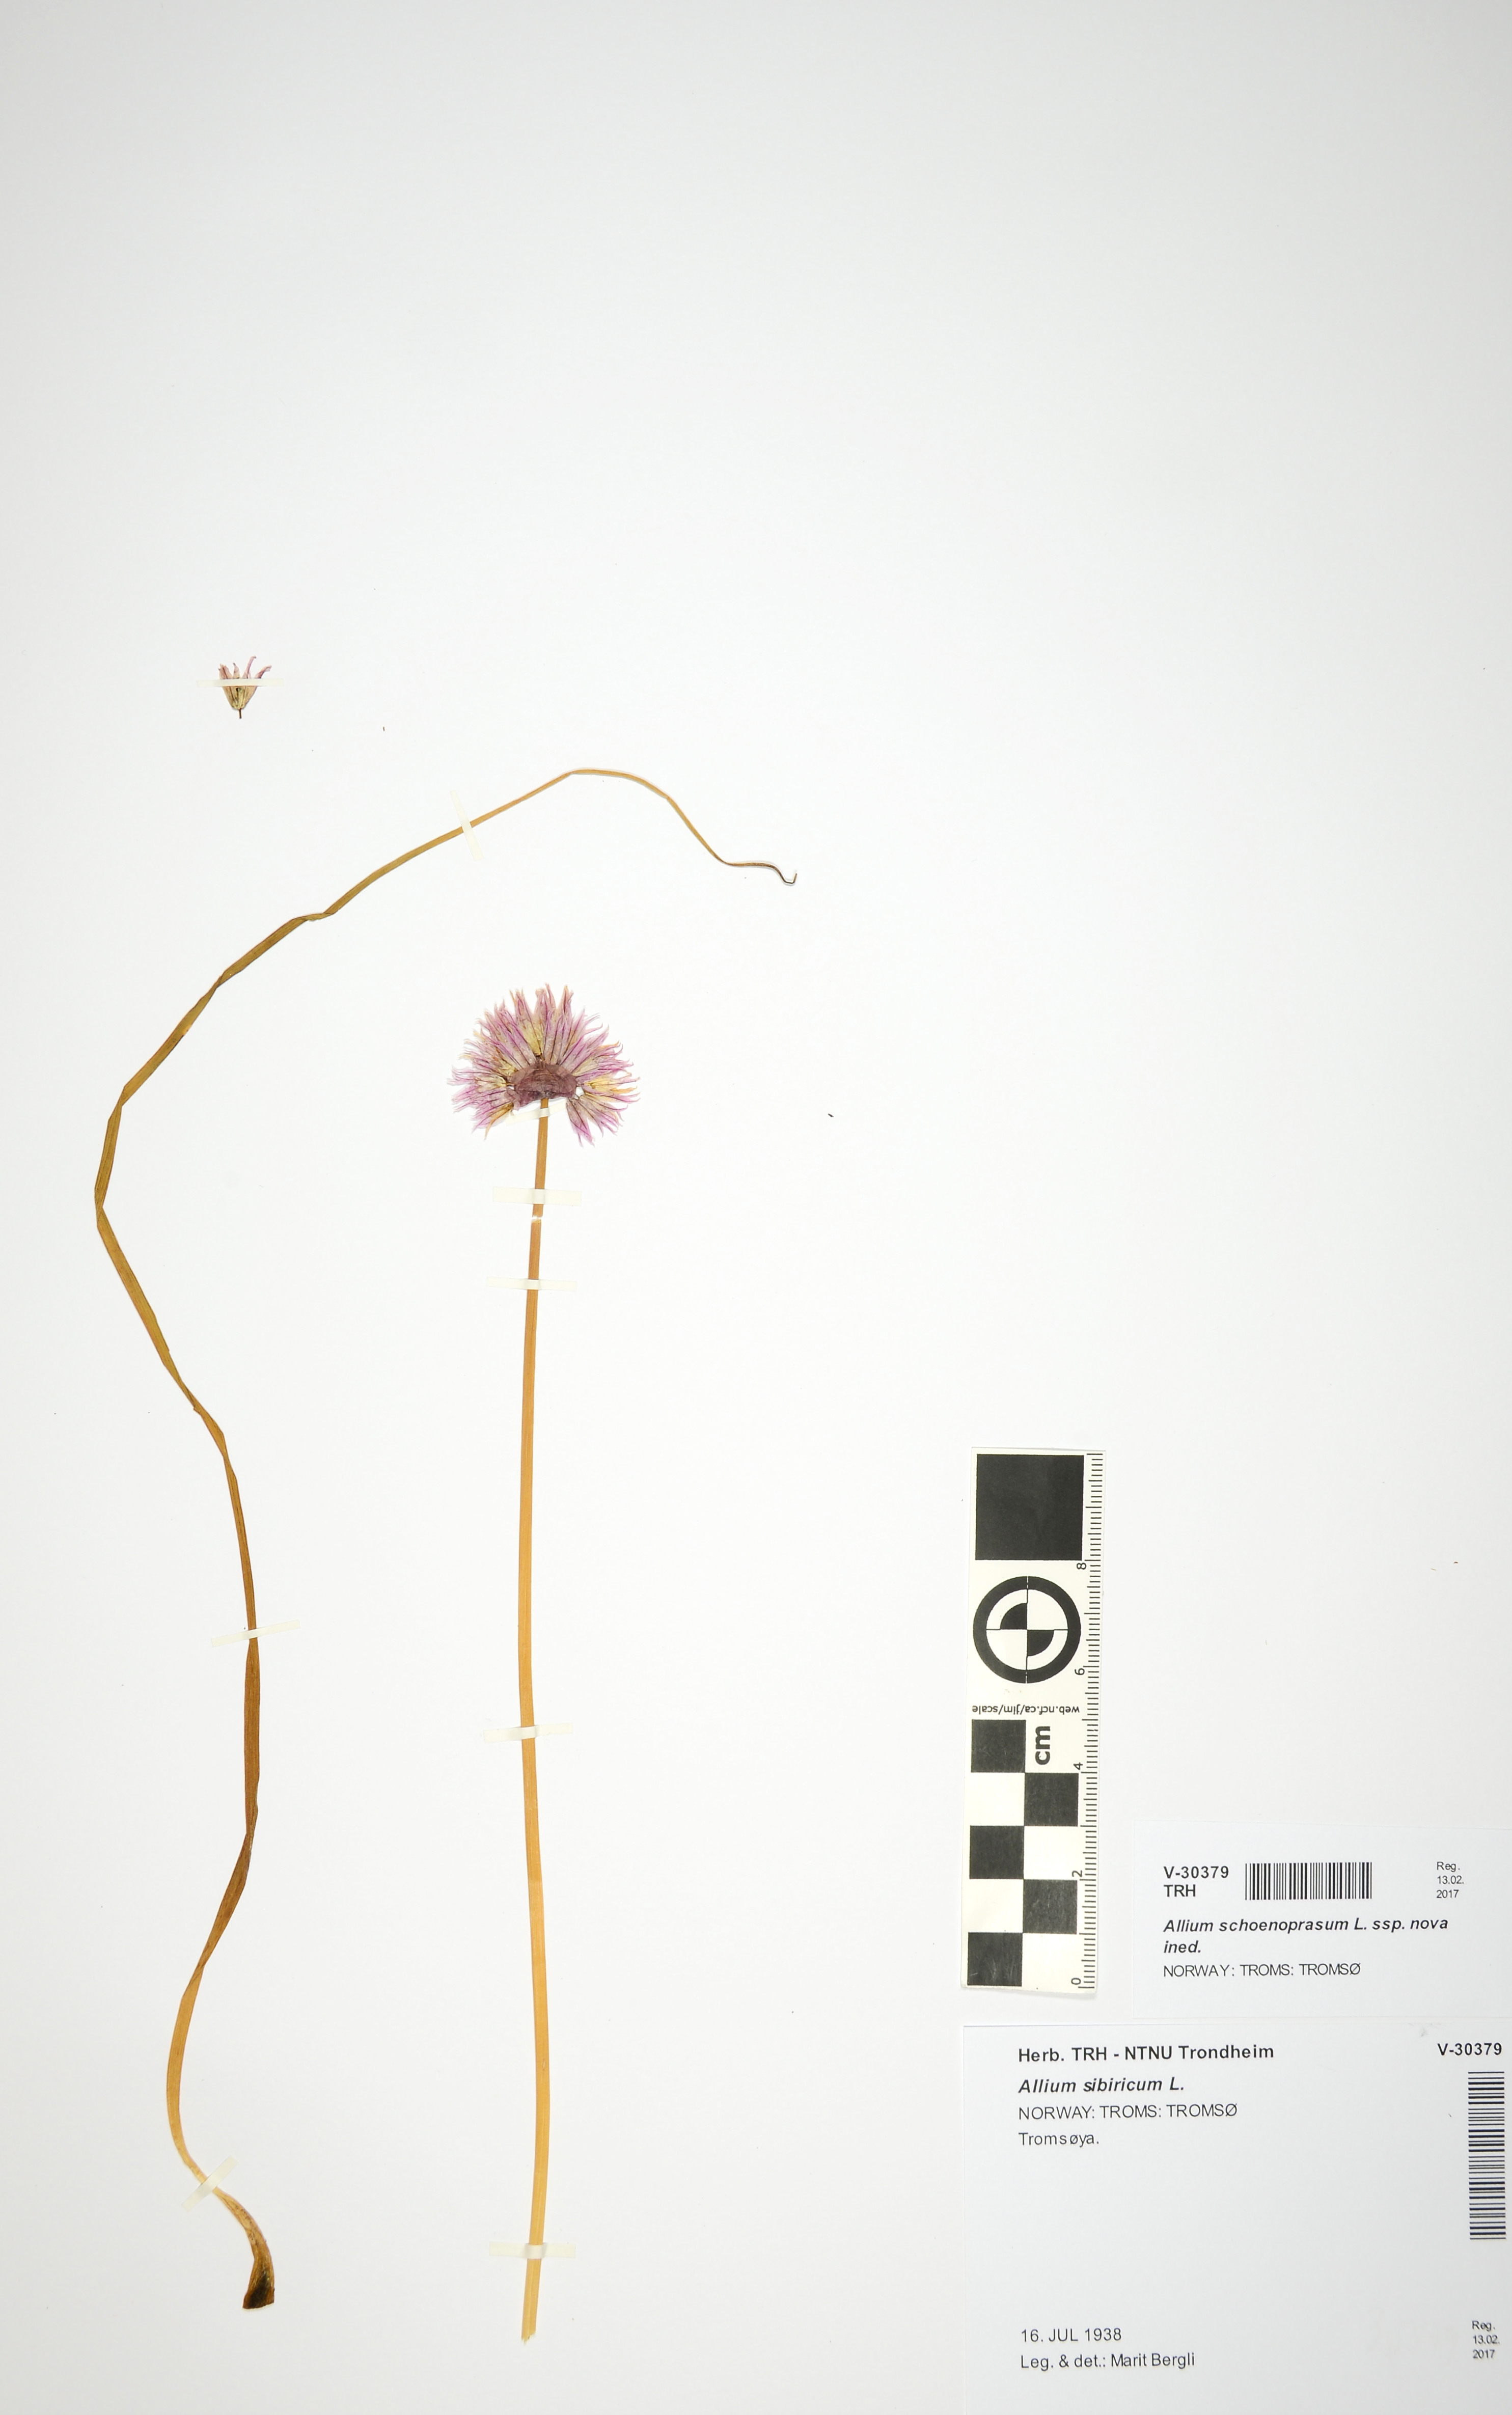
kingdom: Plantae
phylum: Tracheophyta
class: Liliopsida
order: Asparagales
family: Amaryllidaceae
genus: Allium
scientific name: Allium schoenoprasum
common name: Chives
